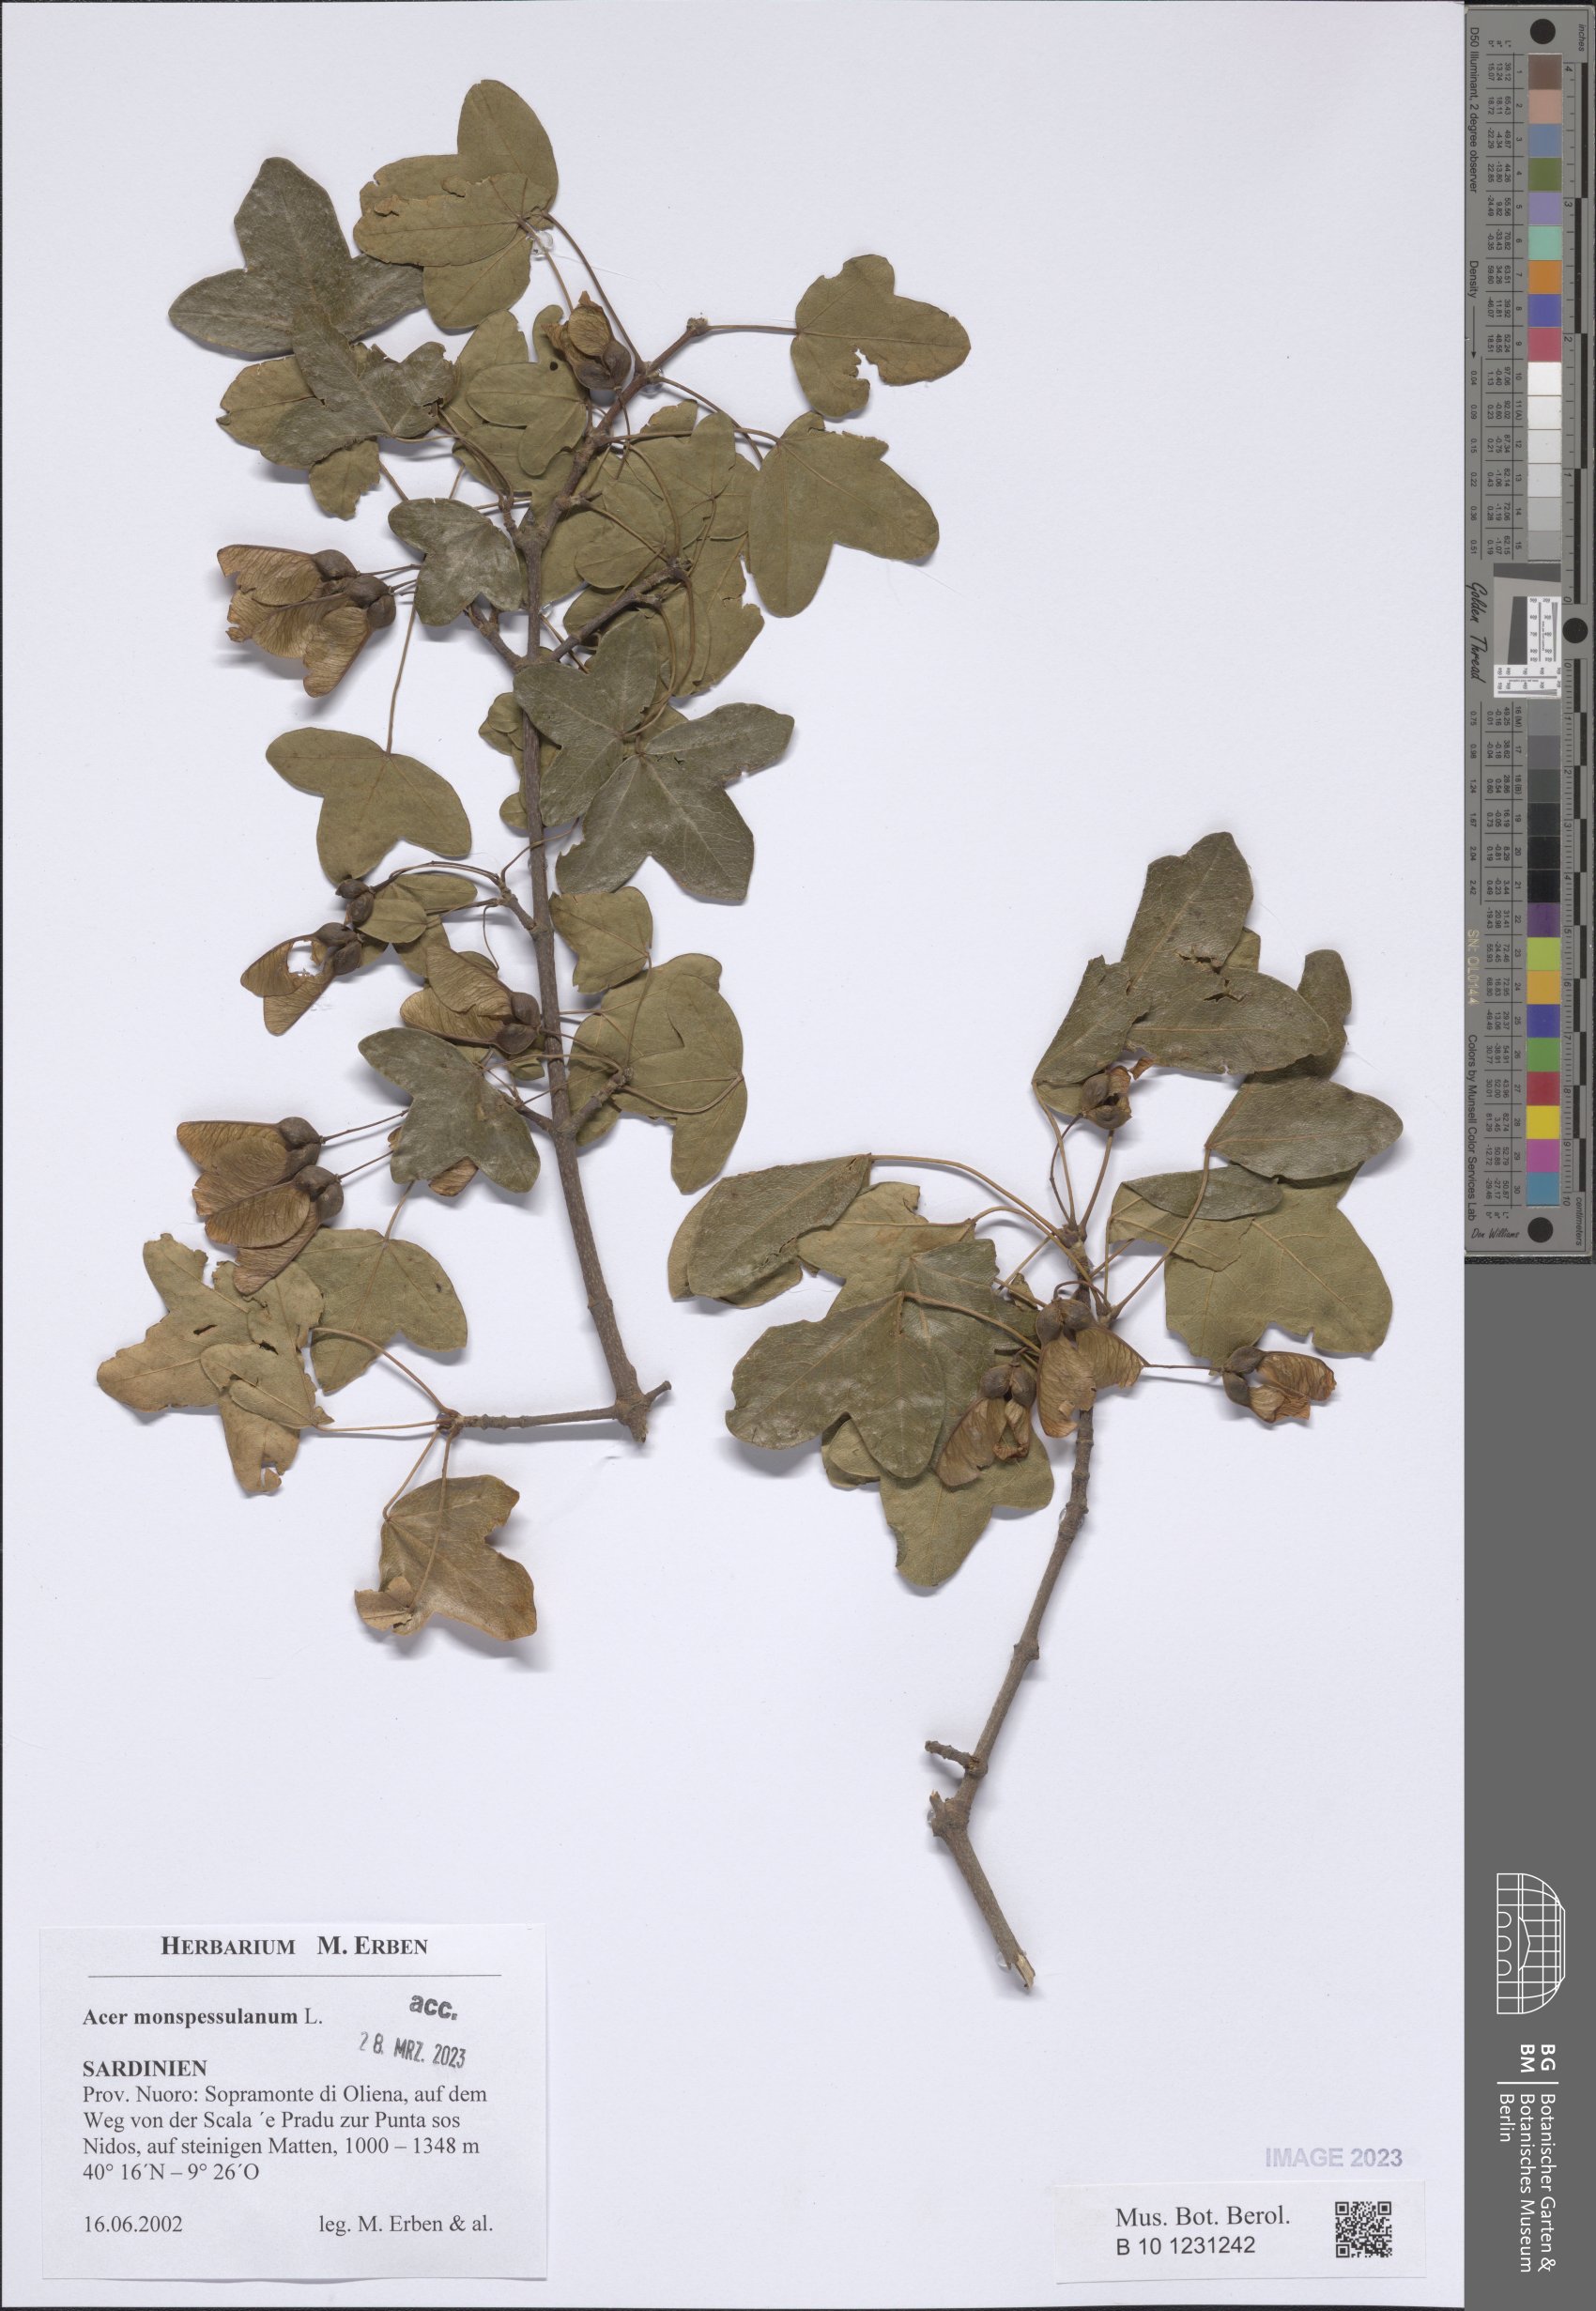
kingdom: Plantae
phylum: Tracheophyta
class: Magnoliopsida
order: Sapindales
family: Sapindaceae
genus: Acer
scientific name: Acer monspessulanum
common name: Montpellier maple
